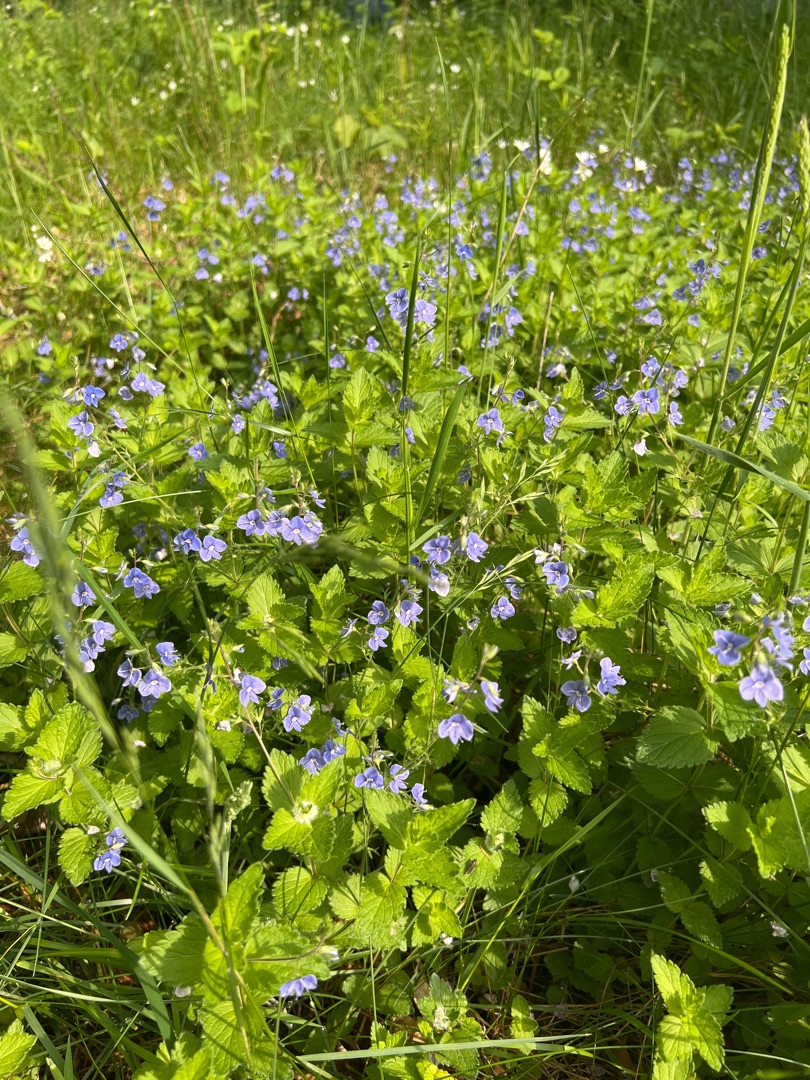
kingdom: Plantae
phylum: Tracheophyta
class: Magnoliopsida
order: Lamiales
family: Plantaginaceae
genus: Veronica
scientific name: Veronica chamaedrys
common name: Tveskægget ærenpris
